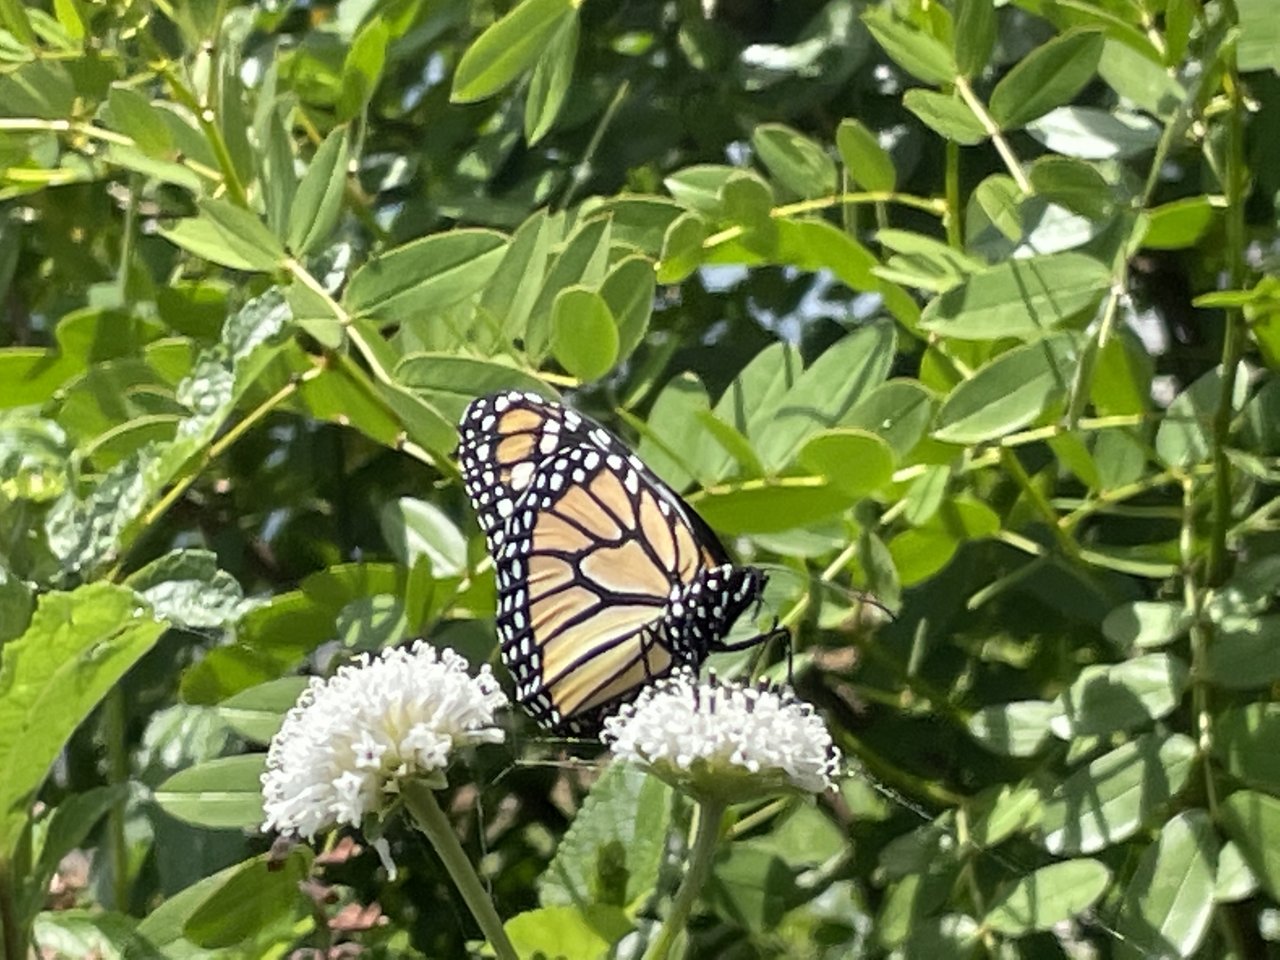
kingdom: Animalia
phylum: Arthropoda
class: Insecta
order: Lepidoptera
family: Nymphalidae
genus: Danaus
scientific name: Danaus plexippus
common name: Monarch
